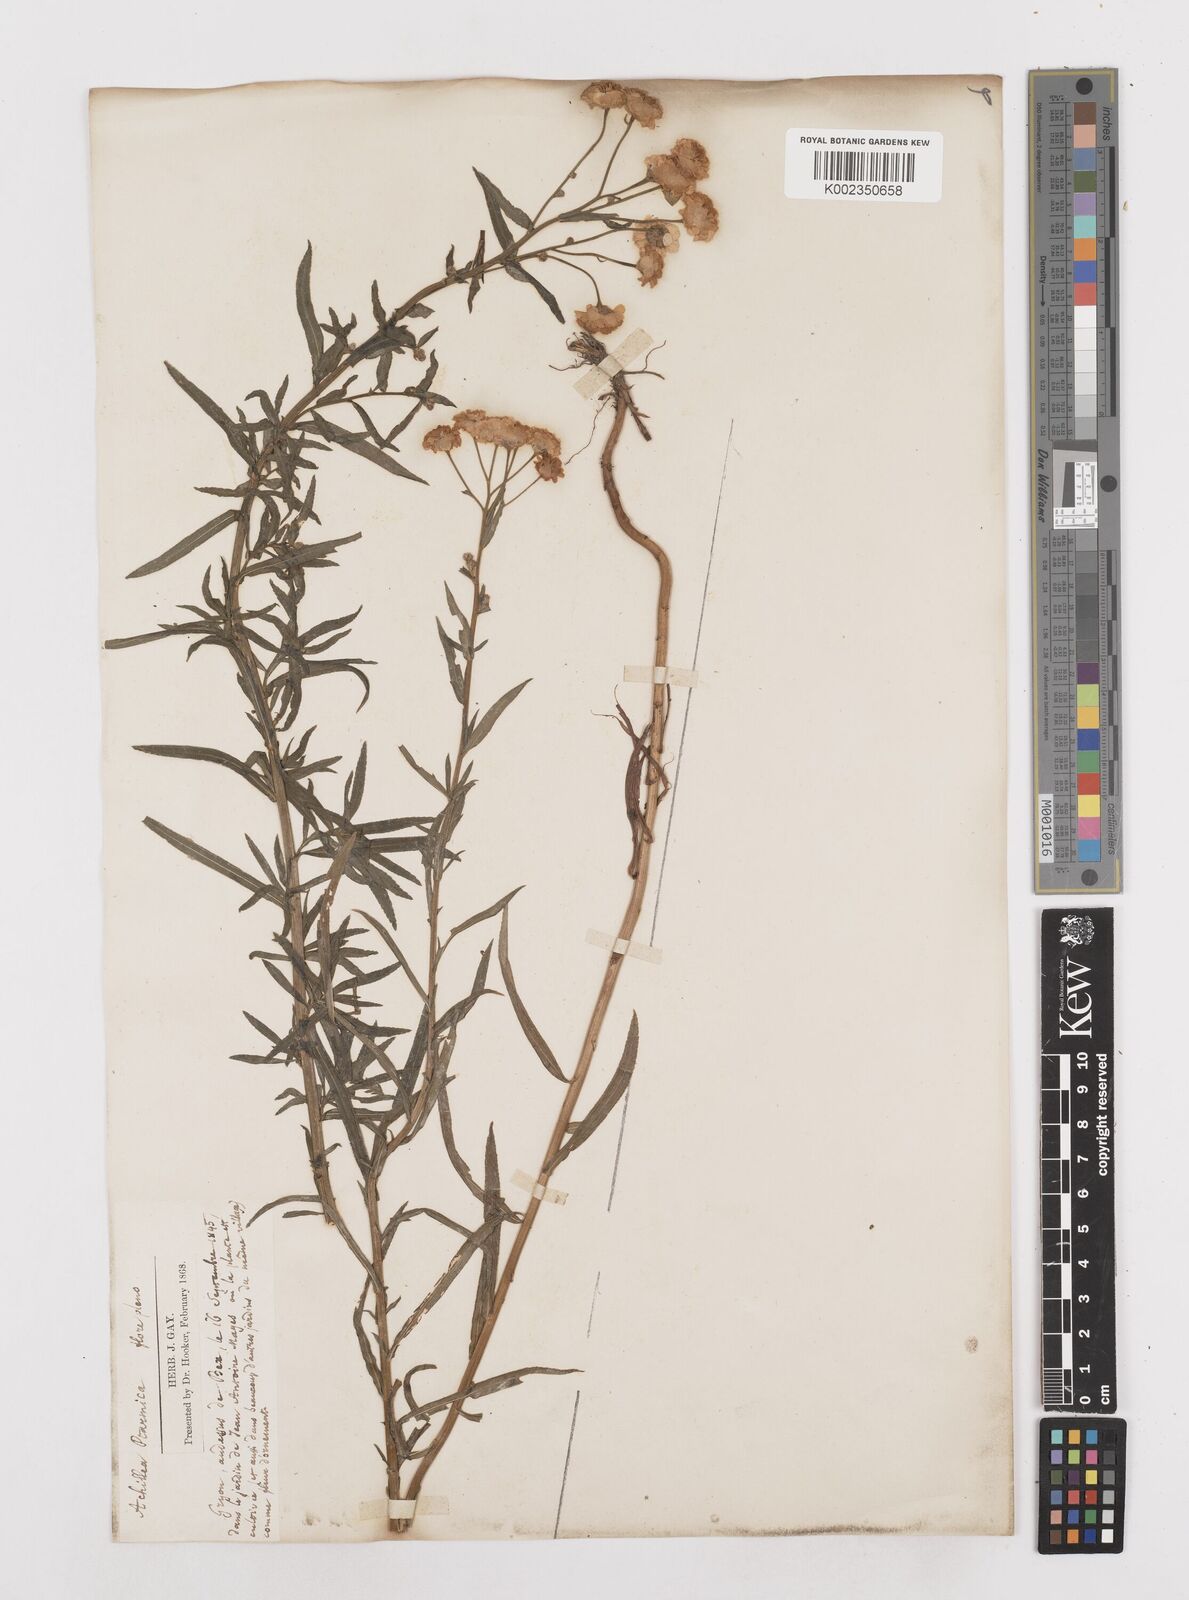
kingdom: Plantae
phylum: Tracheophyta
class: Magnoliopsida
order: Asterales
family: Asteraceae
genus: Achillea
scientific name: Achillea ptarmica
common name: Sneezeweed
